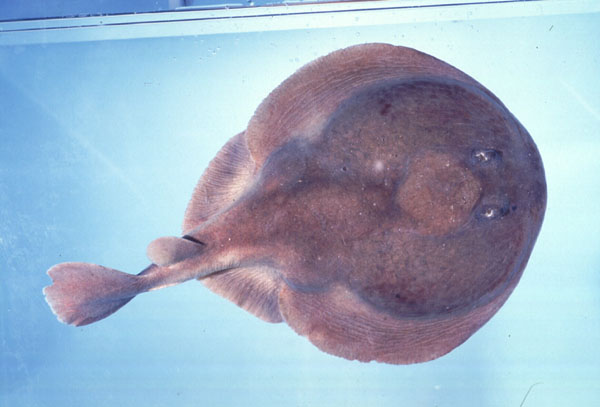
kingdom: Animalia
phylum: Chordata
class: Elasmobranchii
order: Torpediniformes
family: Narkidae
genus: Narke
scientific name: Narke capensis
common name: Onefin electric ray
